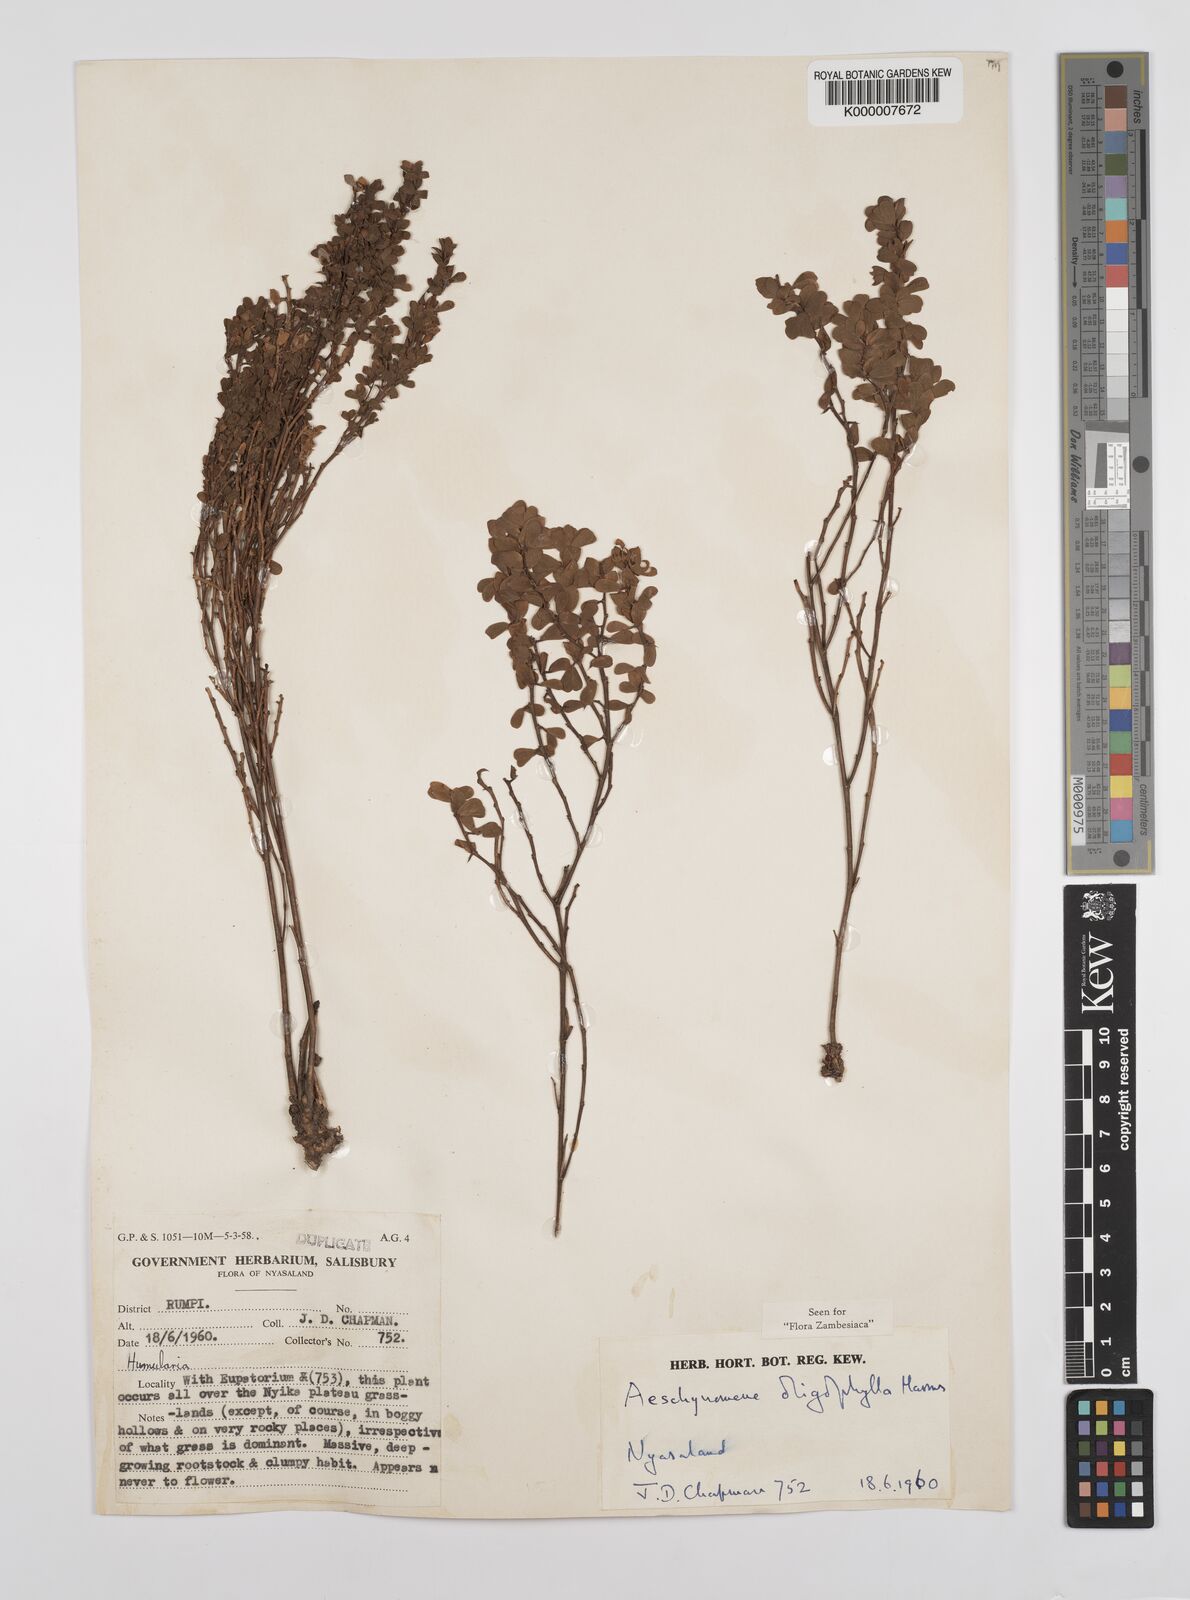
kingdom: Plantae
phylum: Tracheophyta
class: Magnoliopsida
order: Fabales
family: Fabaceae
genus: Aeschynomene
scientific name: Aeschynomene oligophylla
